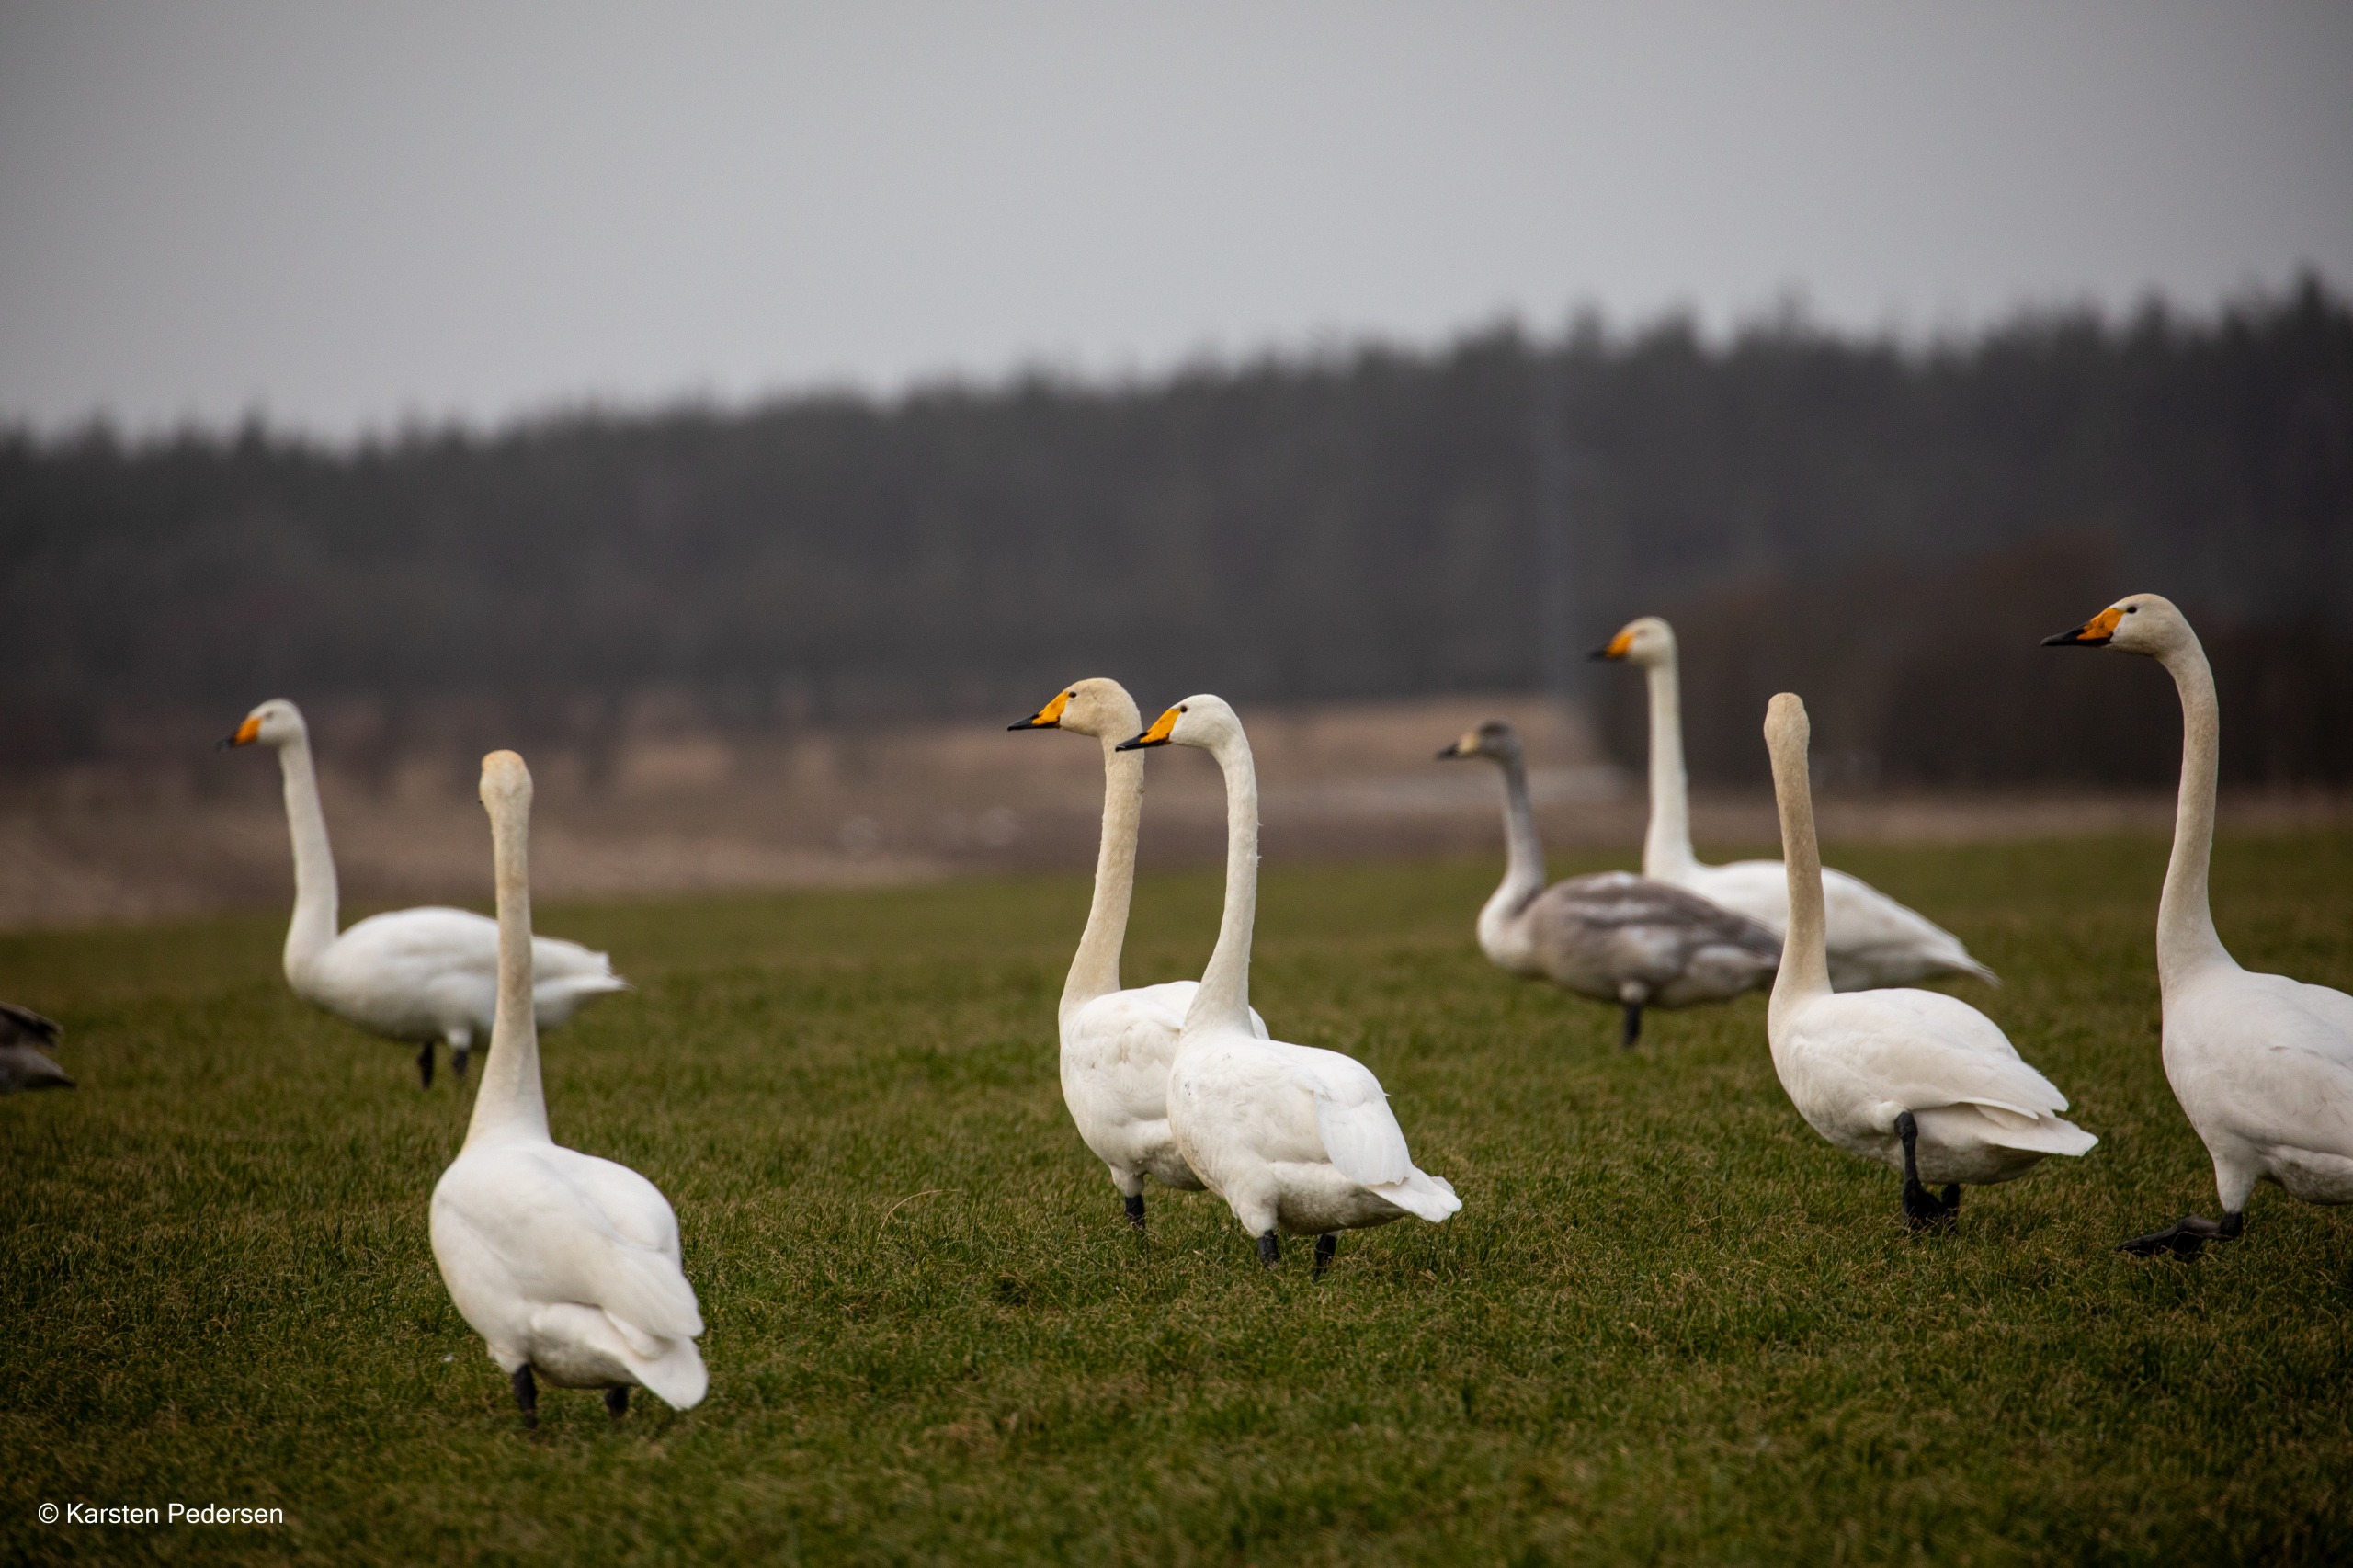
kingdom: Animalia
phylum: Chordata
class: Aves
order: Anseriformes
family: Anatidae
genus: Cygnus
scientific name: Cygnus cygnus
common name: Sangsvane
